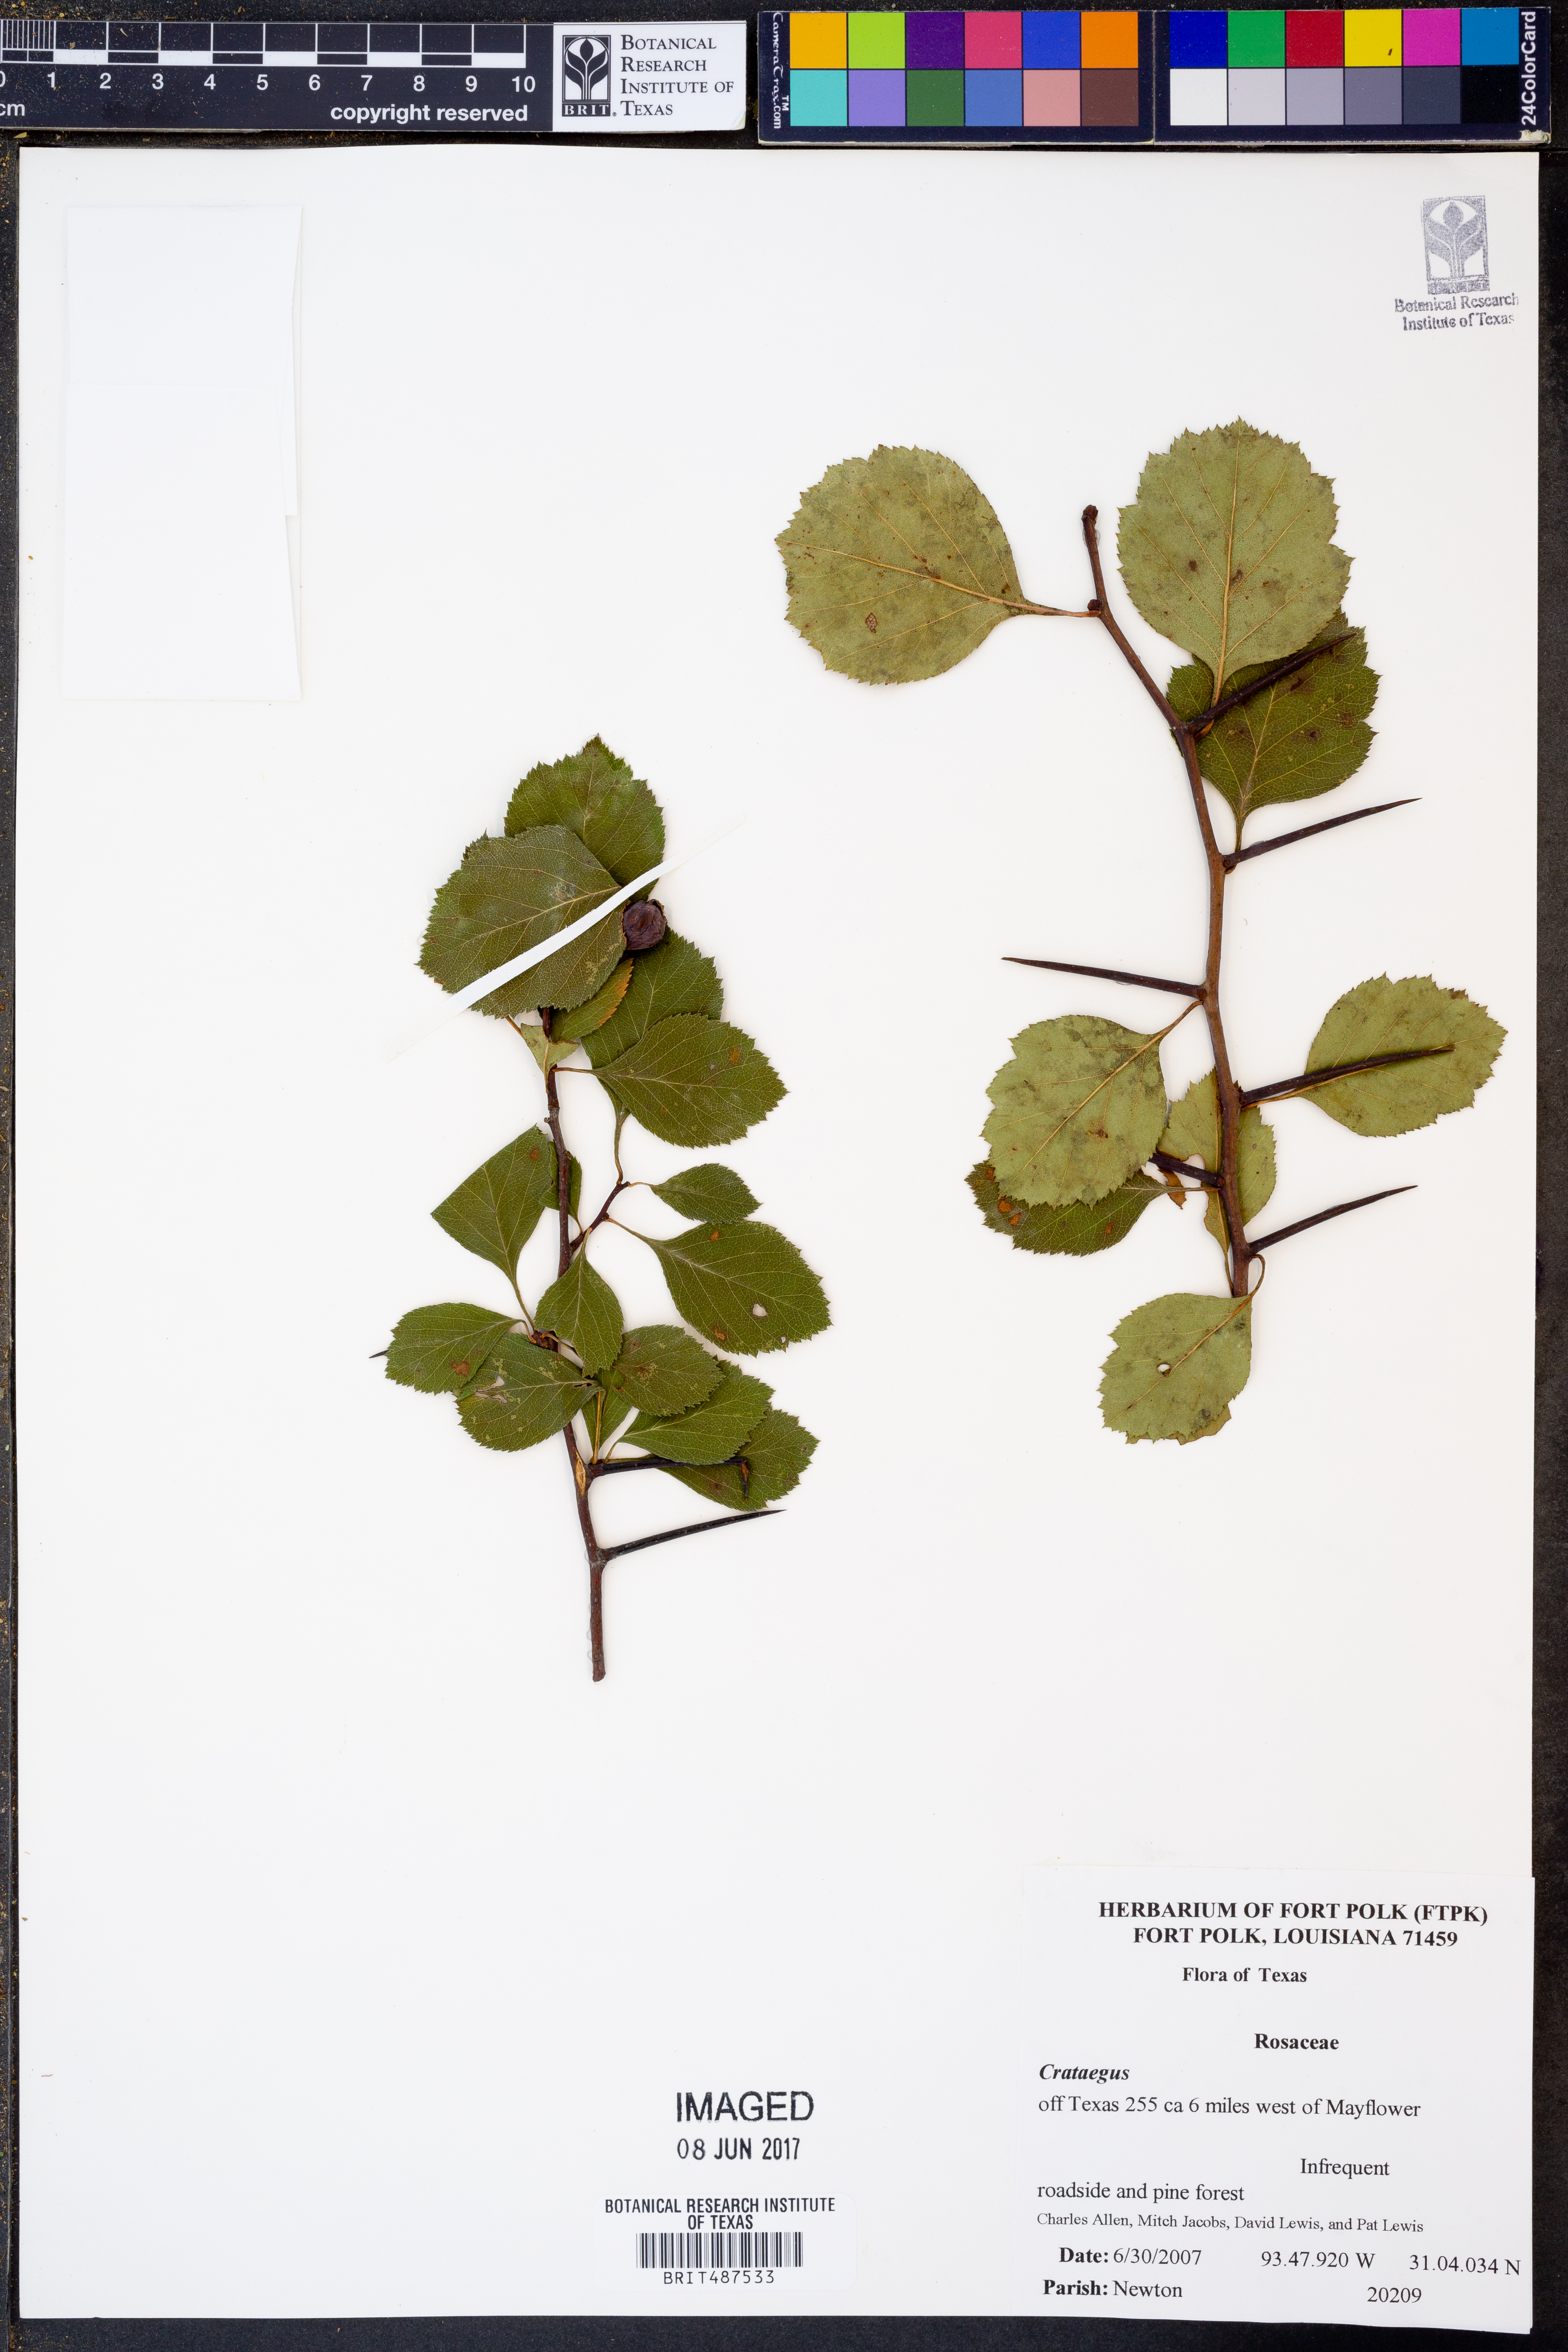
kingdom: Plantae
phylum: Tracheophyta
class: Magnoliopsida
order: Rosales
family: Rosaceae
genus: Crataegus
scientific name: Crataegus
